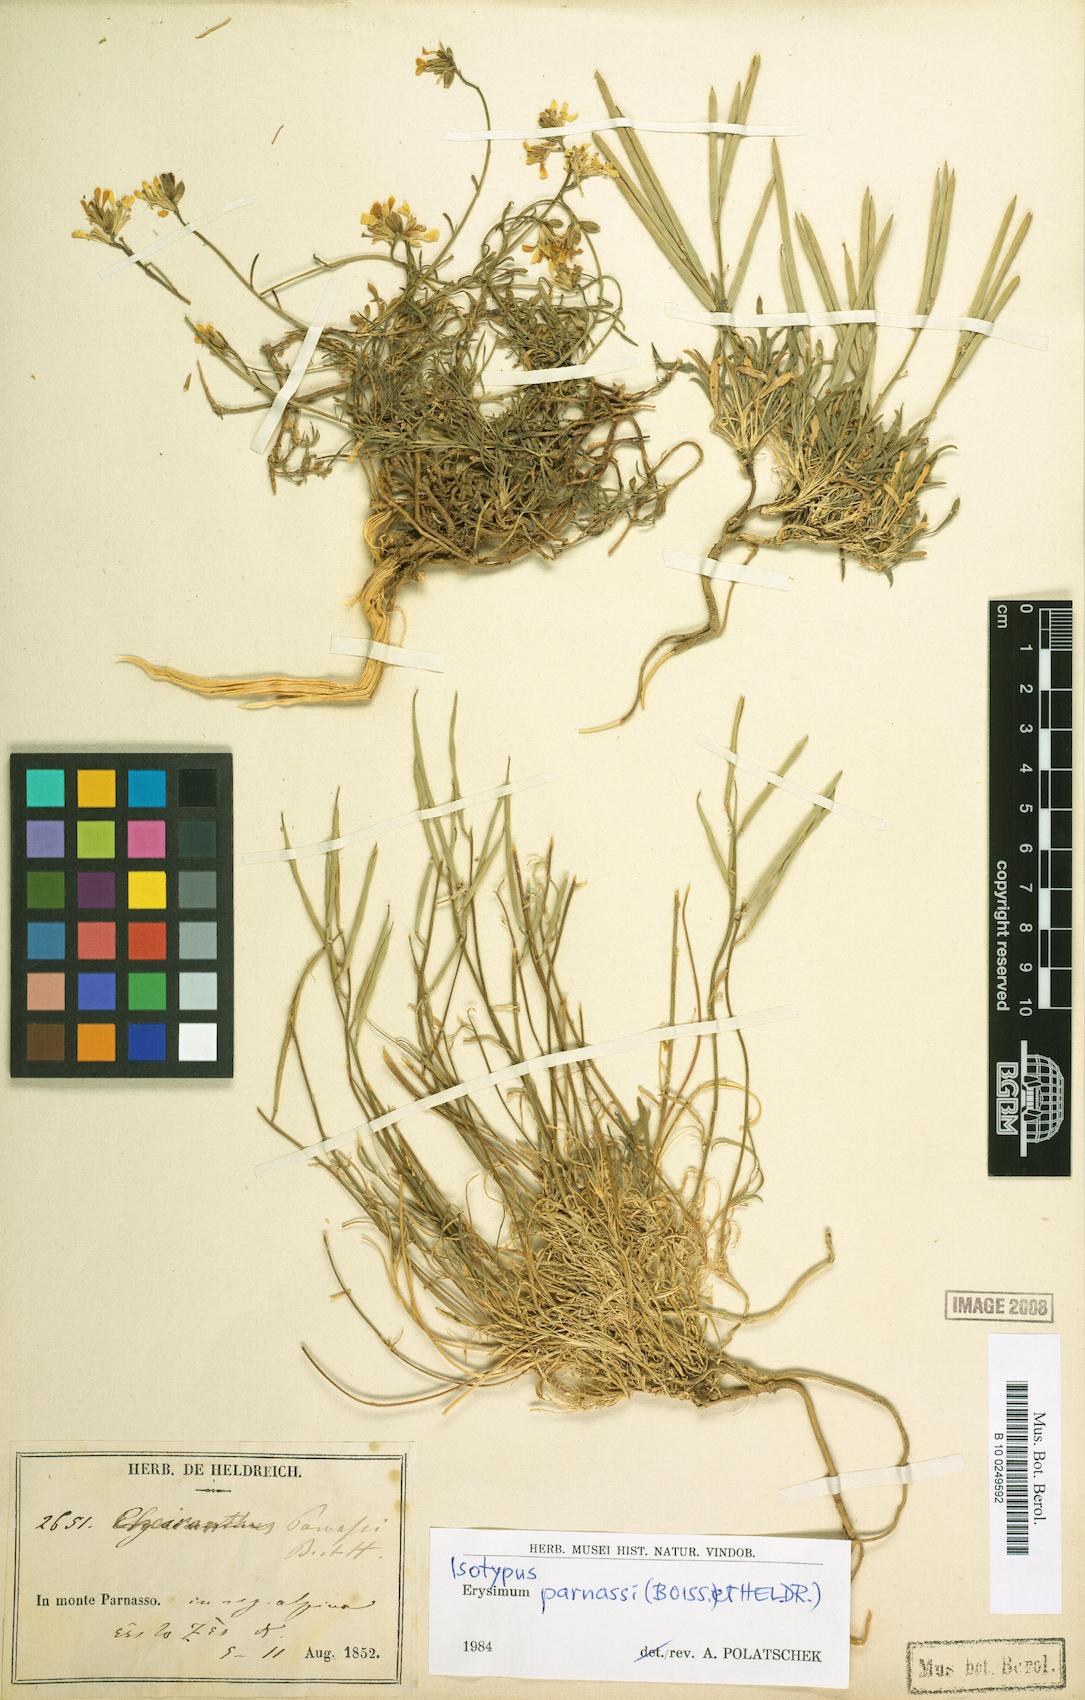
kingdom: Plantae
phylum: Tracheophyta
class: Magnoliopsida
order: Brassicales
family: Brassicaceae
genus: Erysimum
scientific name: Erysimum parnassi
